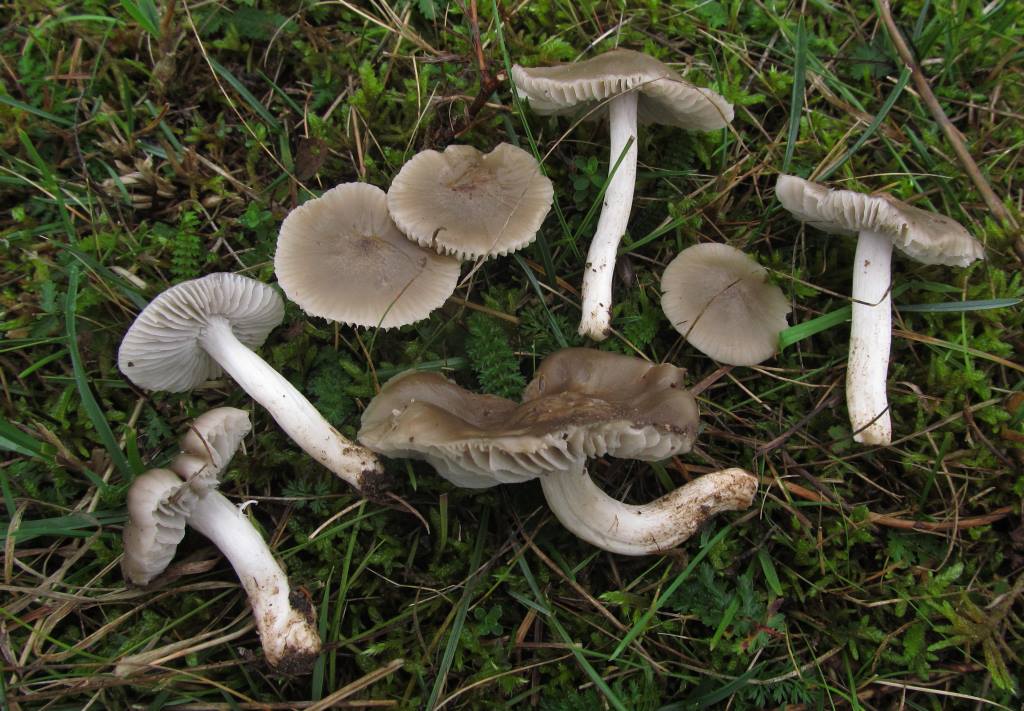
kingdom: Fungi
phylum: Basidiomycota
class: Agaricomycetes
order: Agaricales
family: Hygrophoraceae
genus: Cuphophyllus
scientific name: Cuphophyllus fornicatus
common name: gråbrun vokshat
